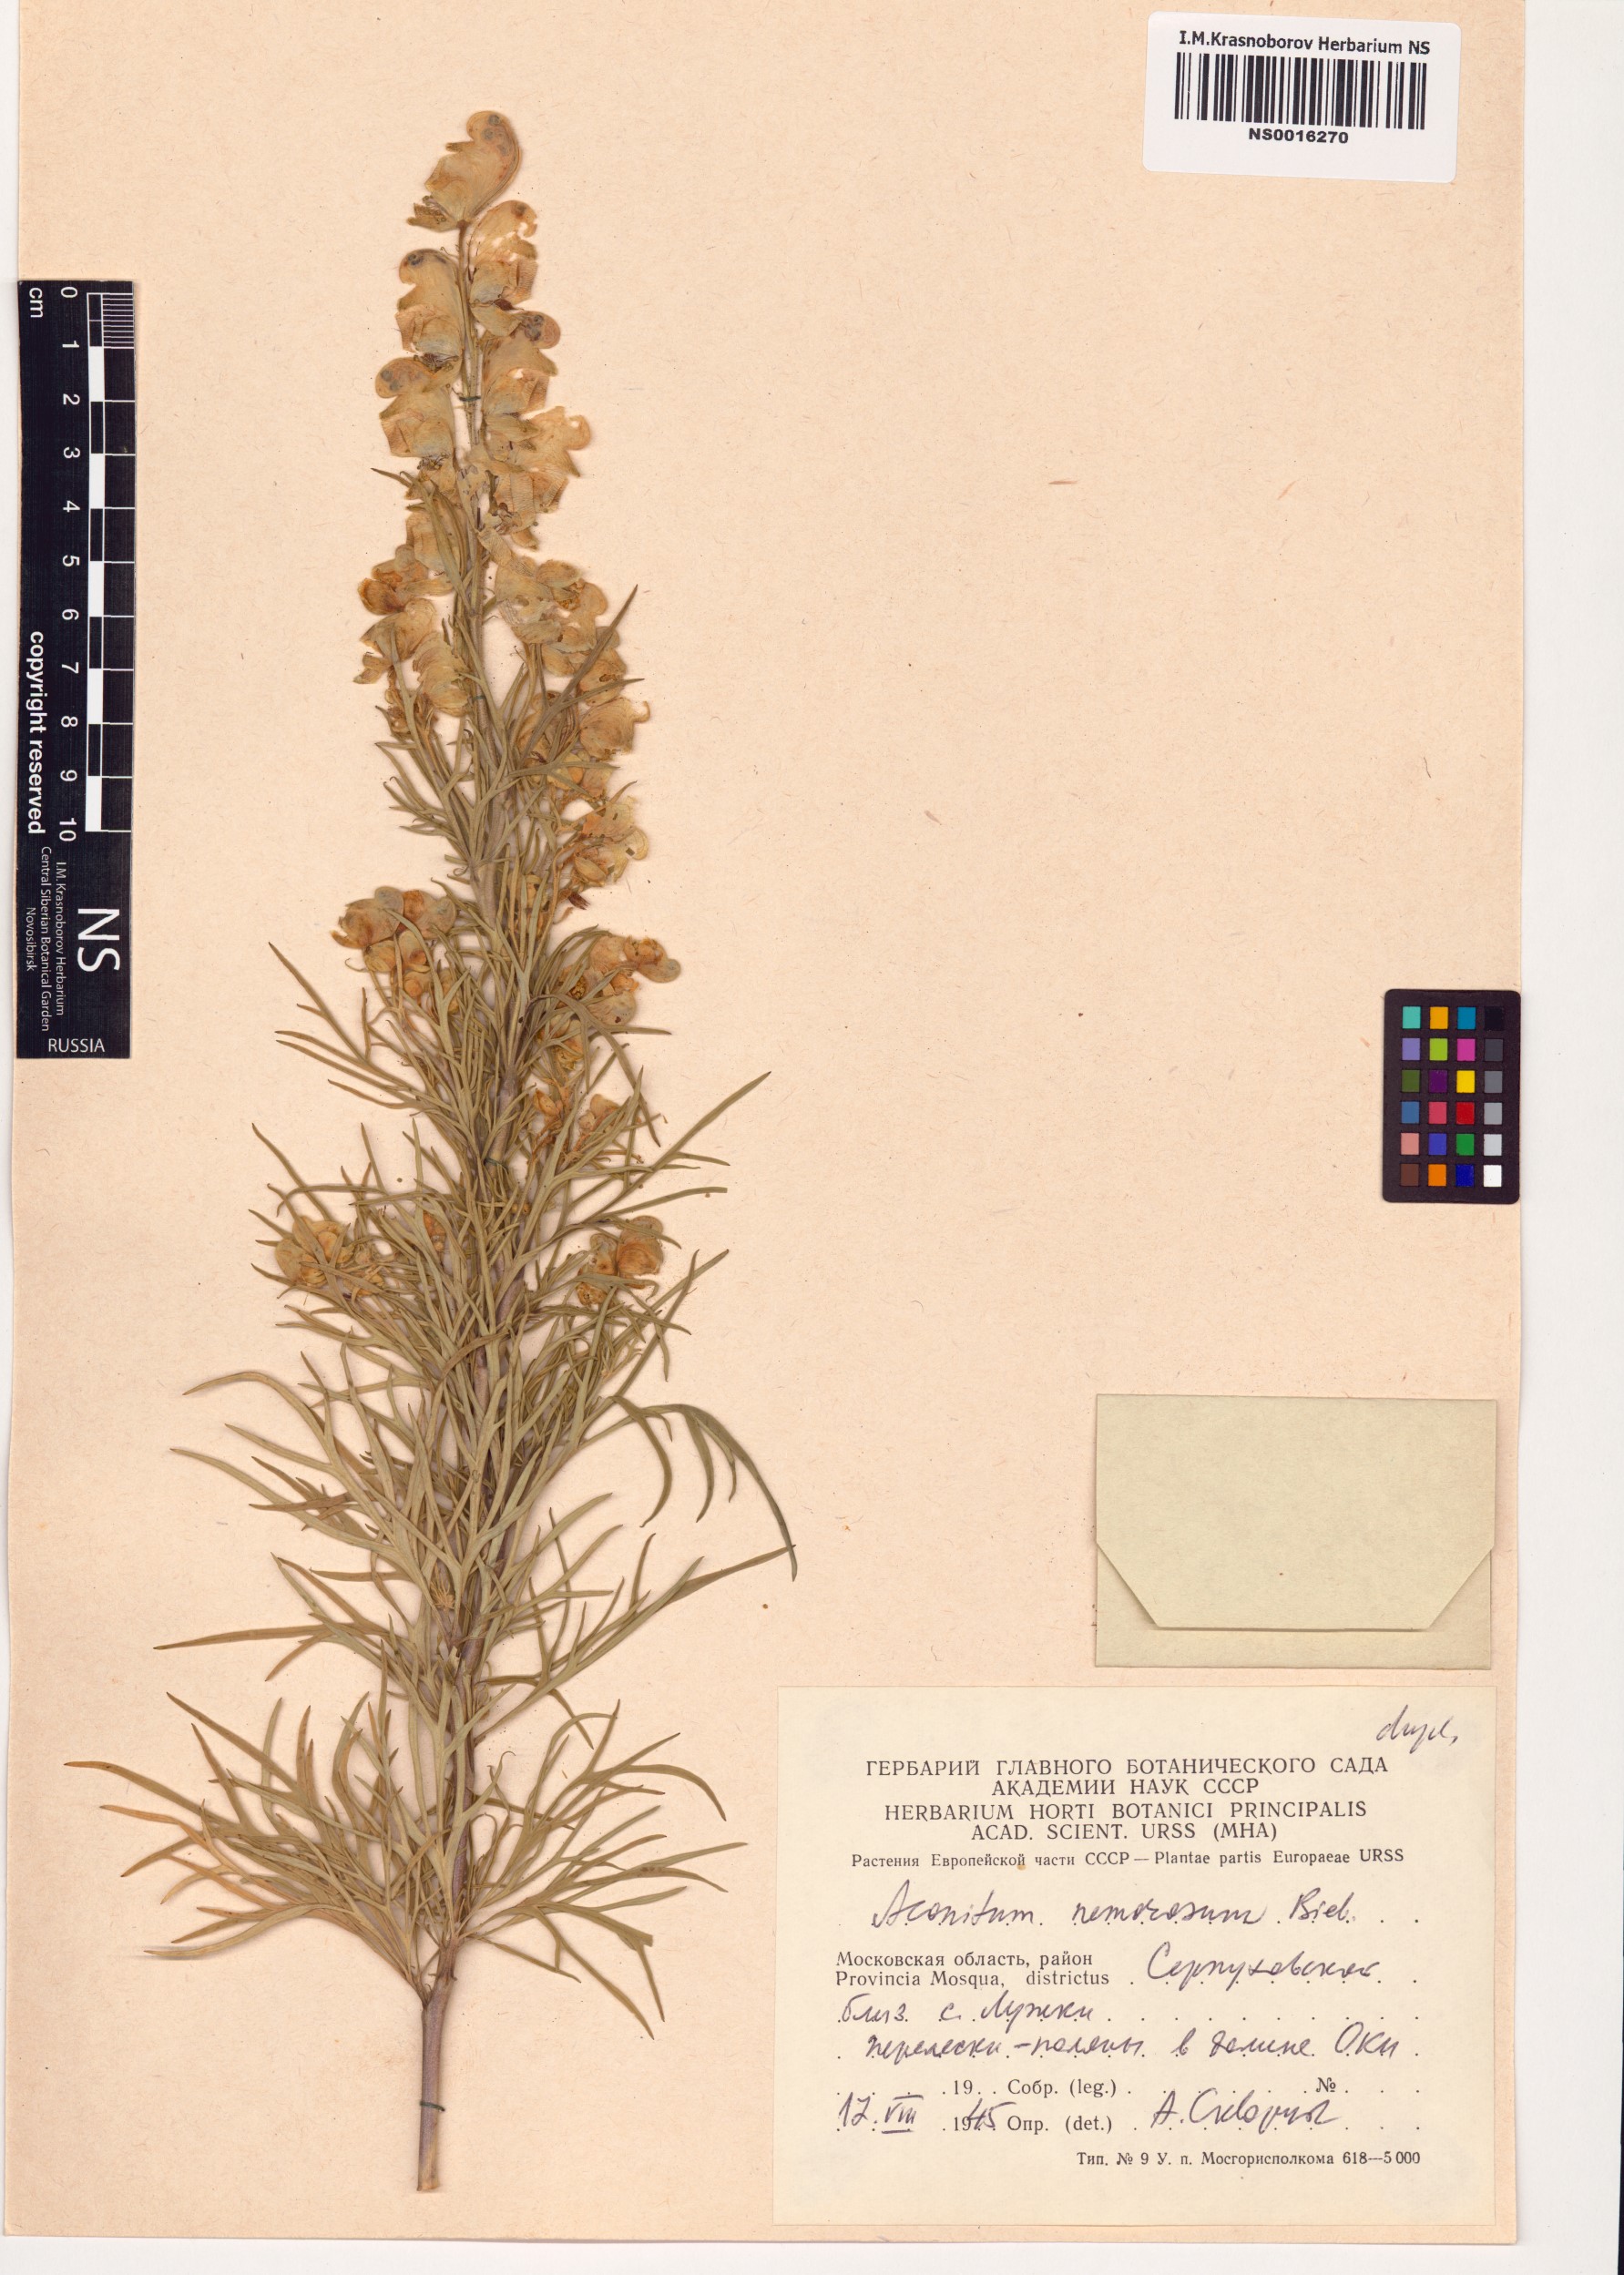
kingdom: Plantae
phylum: Tracheophyta
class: Magnoliopsida
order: Ranunculales
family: Ranunculaceae
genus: Aconitum
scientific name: Aconitum anthora
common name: Yellow monkshood
